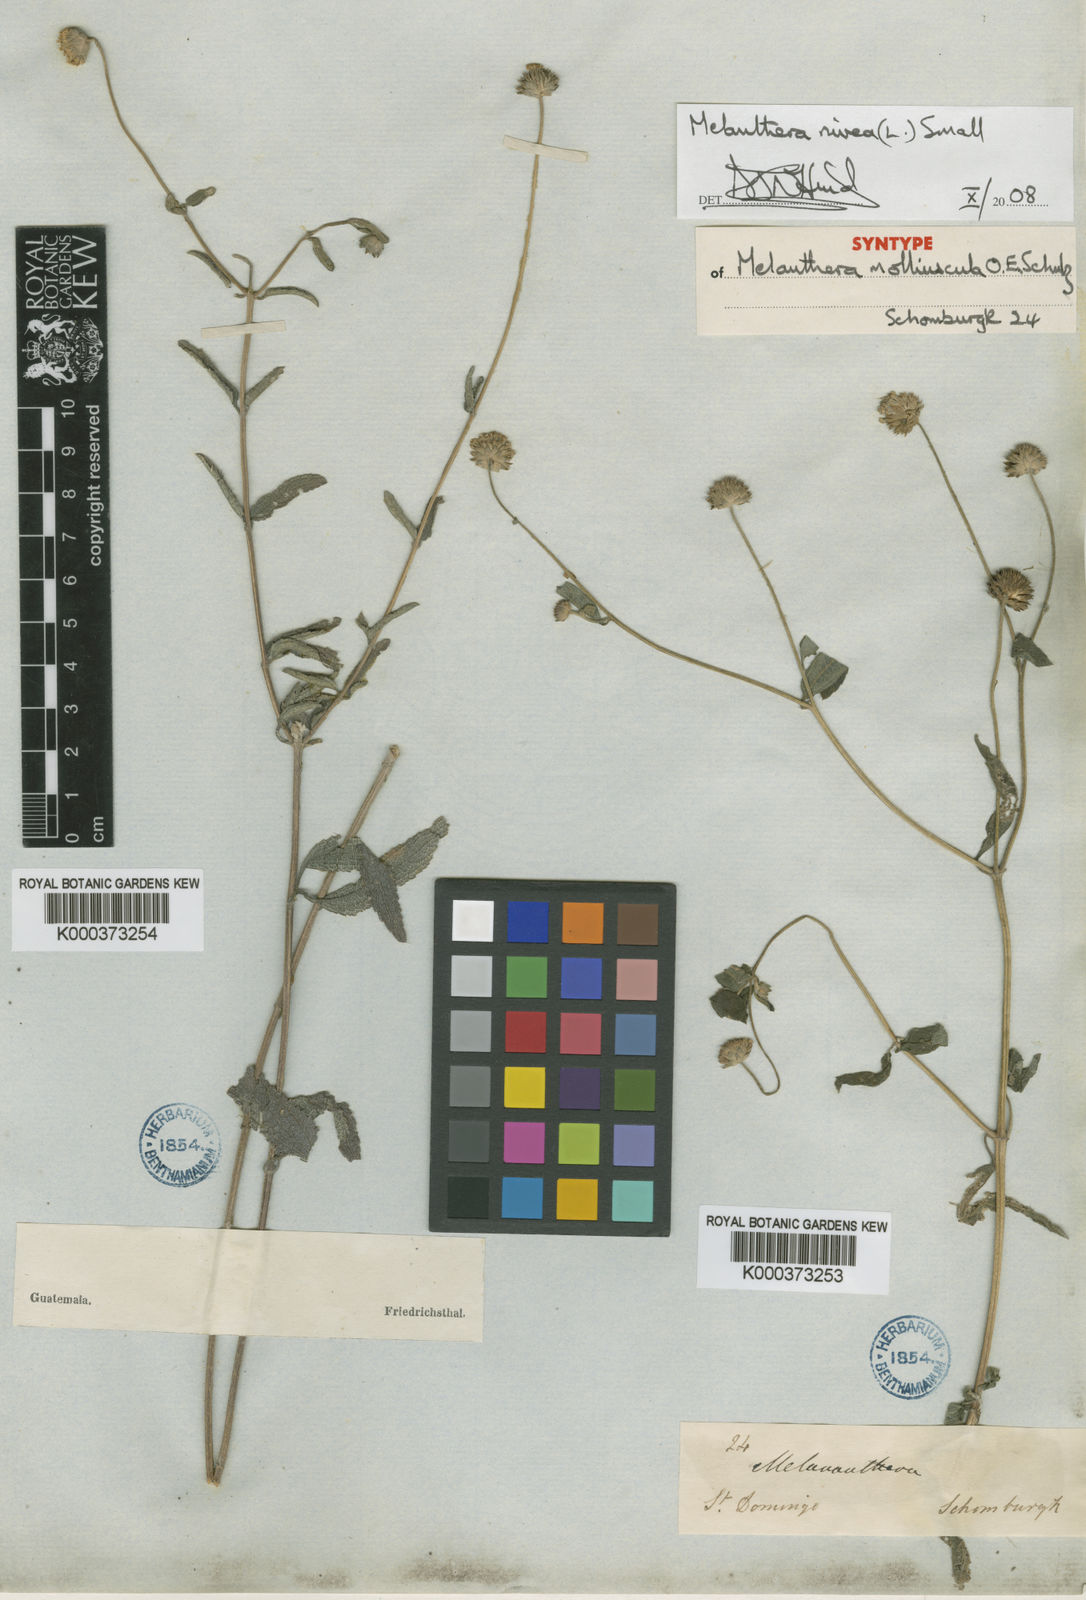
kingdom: Plantae
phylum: Tracheophyta
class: Magnoliopsida
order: Asterales
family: Asteraceae
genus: Melanthera
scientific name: Melanthera nivea
